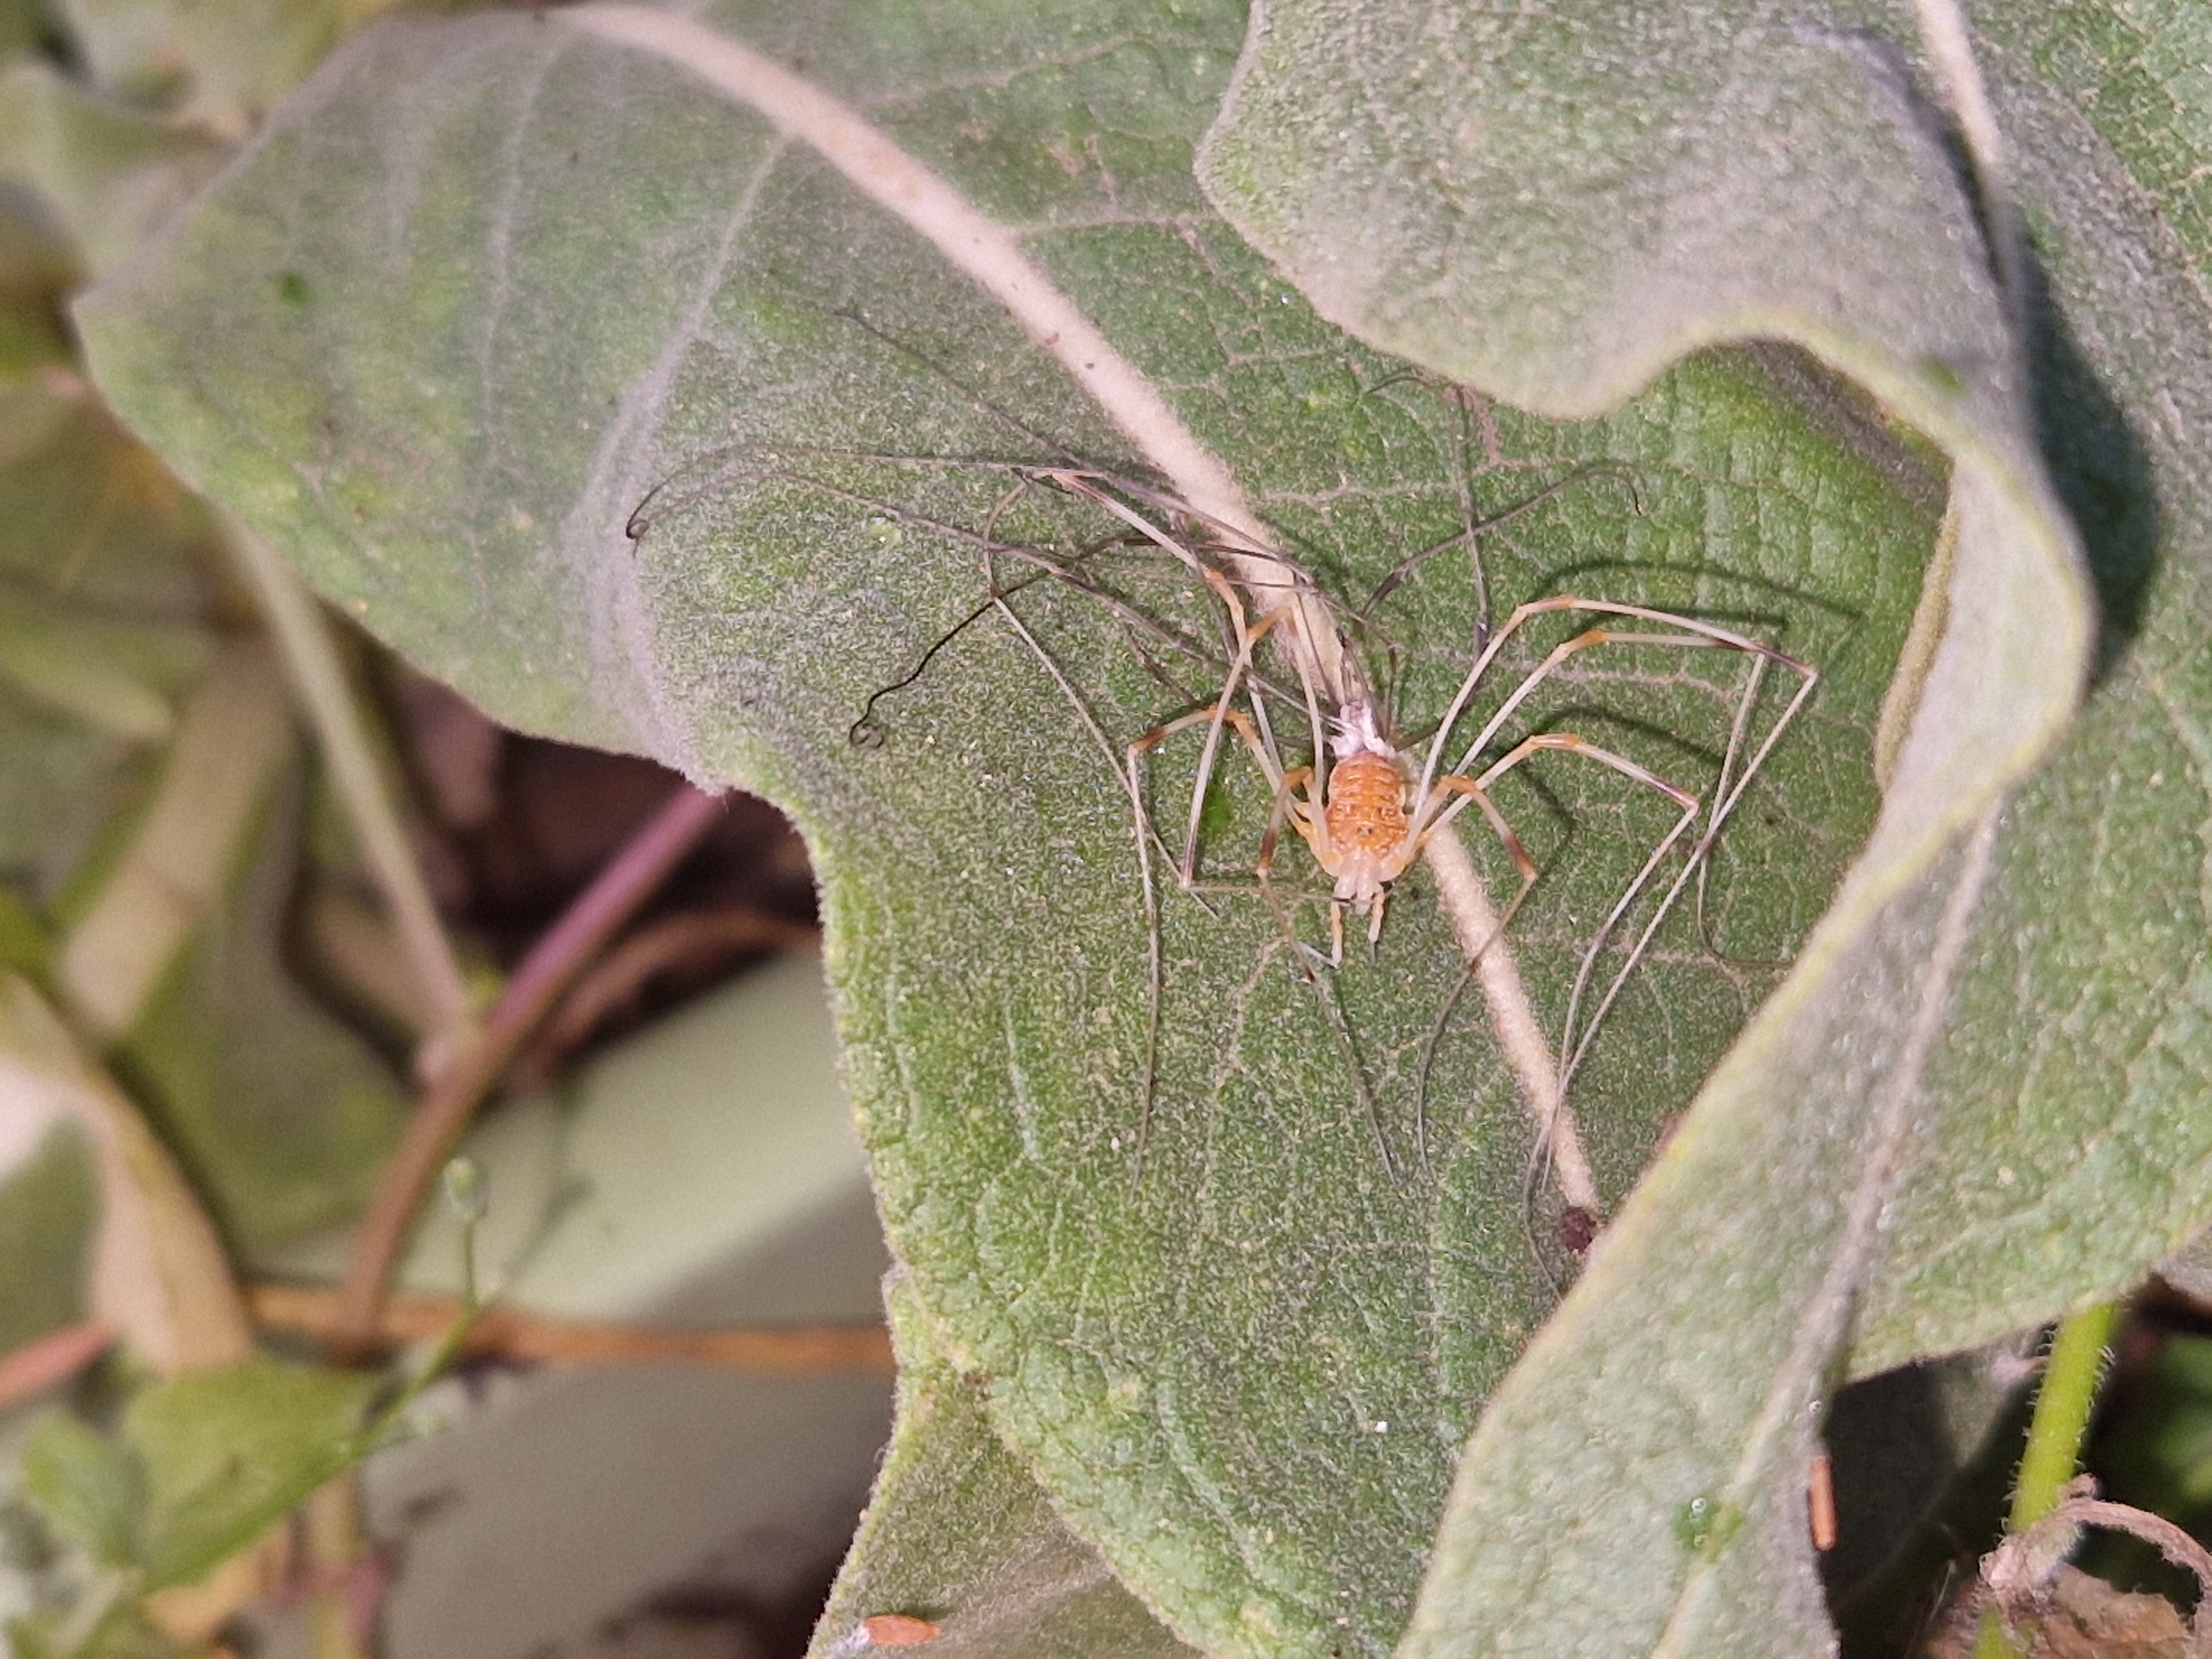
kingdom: Animalia
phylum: Arthropoda
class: Arachnida
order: Opiliones
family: Phalangiidae
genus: Opilio
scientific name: Opilio canestrinii
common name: Orange vægmejer
